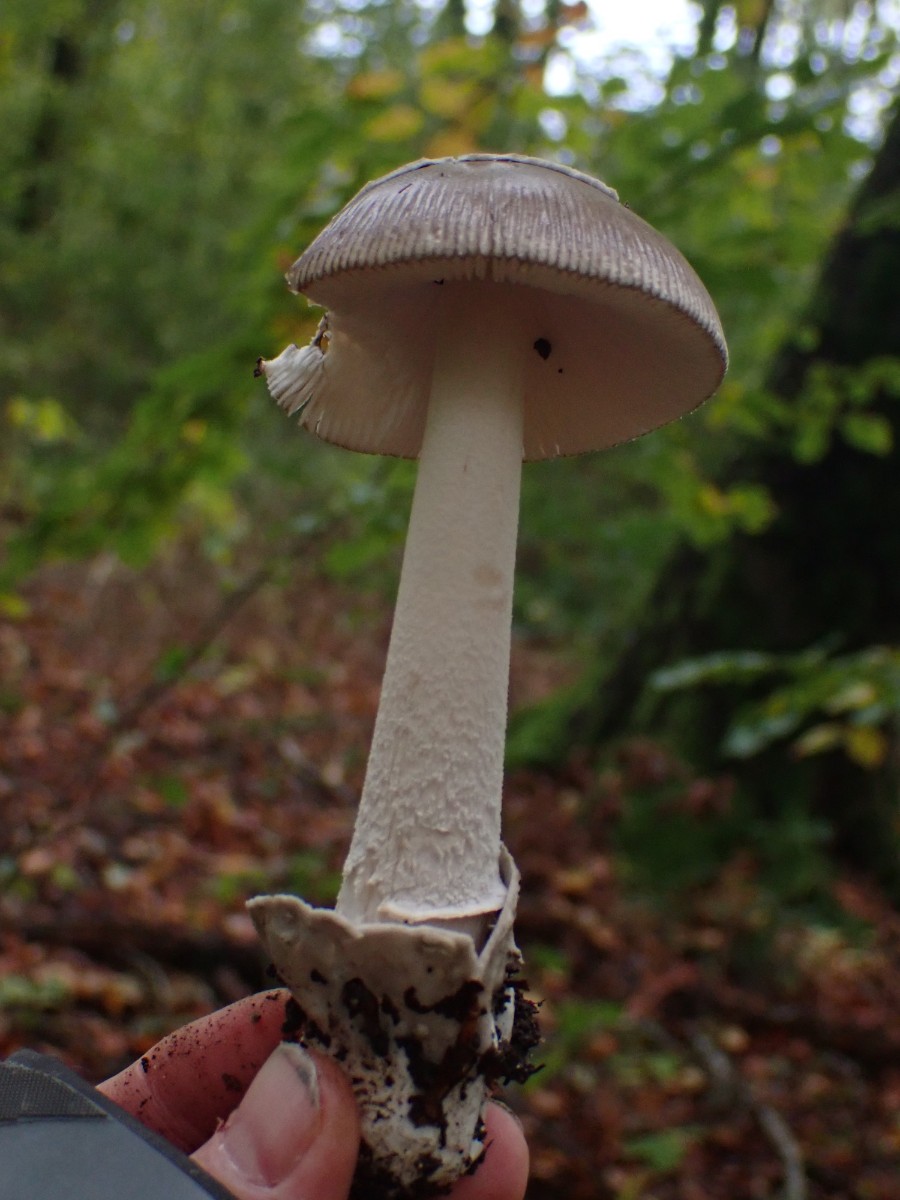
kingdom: Fungi
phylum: Basidiomycota
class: Agaricomycetes
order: Agaricales
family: Amanitaceae
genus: Amanita
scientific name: Amanita
